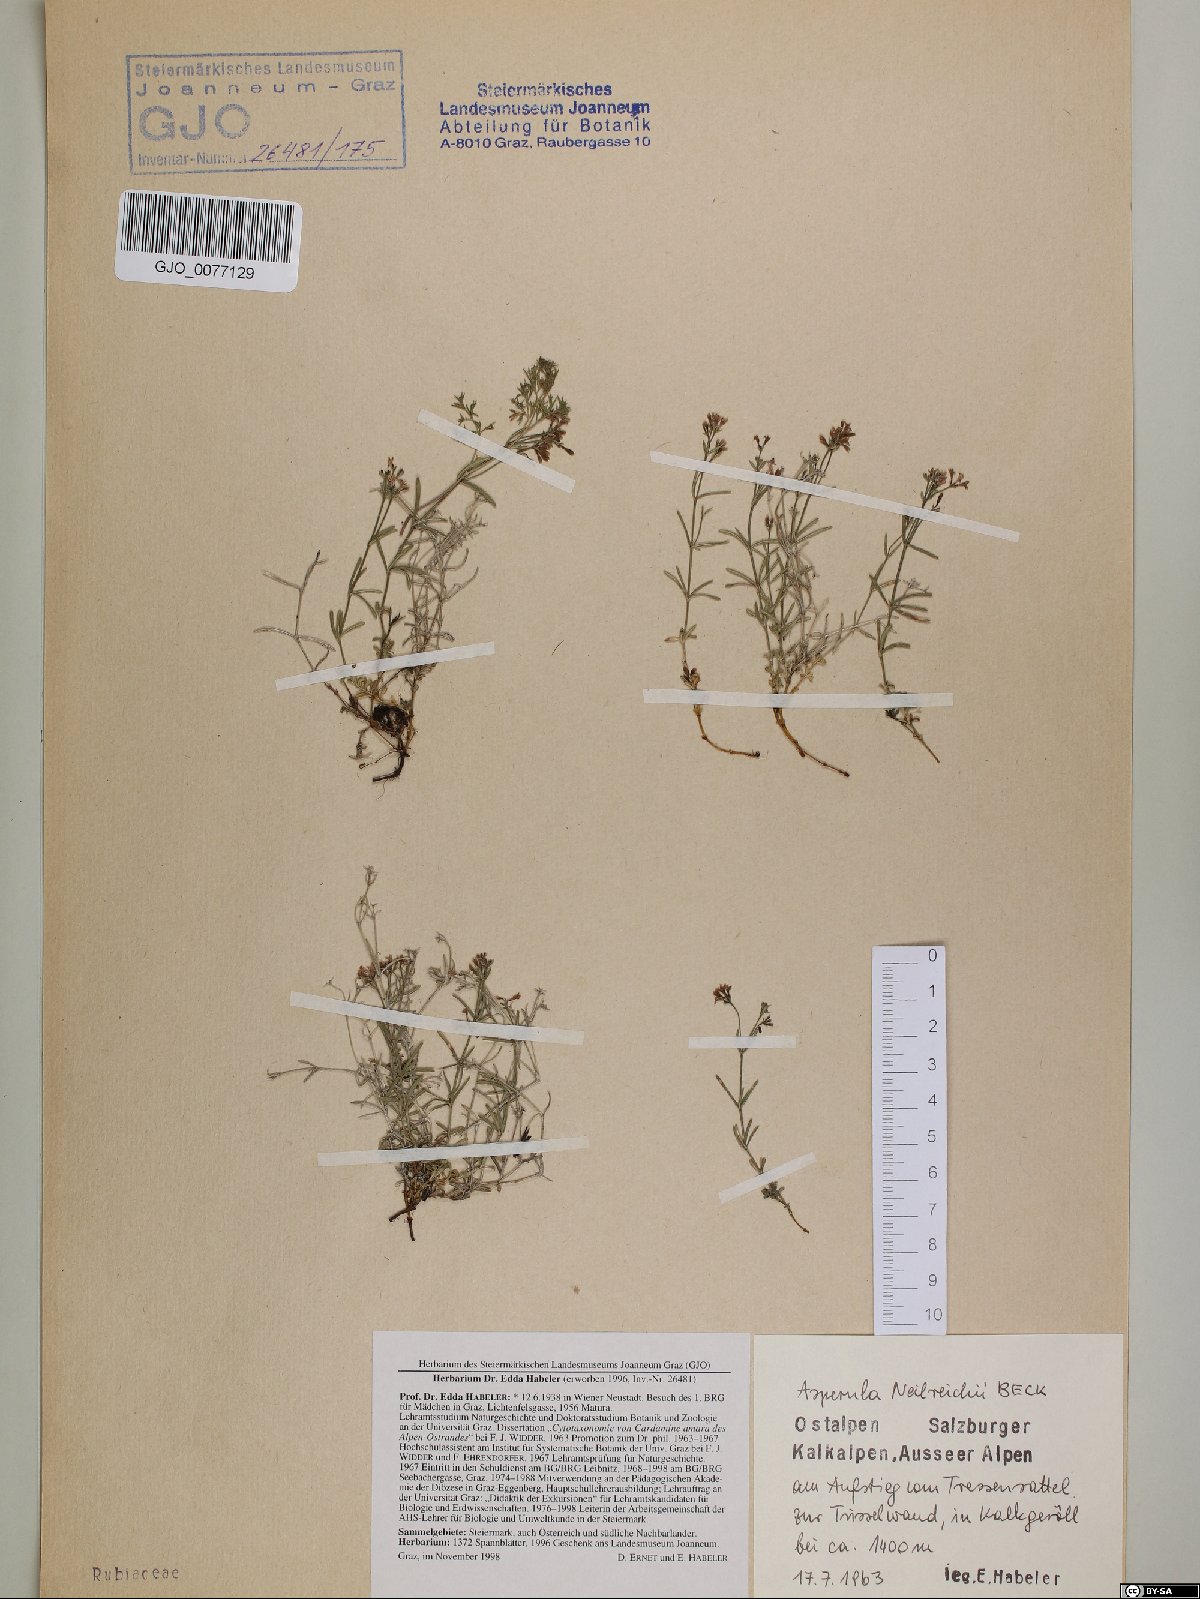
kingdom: Plantae
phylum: Tracheophyta
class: Magnoliopsida
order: Gentianales
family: Rubiaceae
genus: Cynanchica
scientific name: Cynanchica neilreichii
